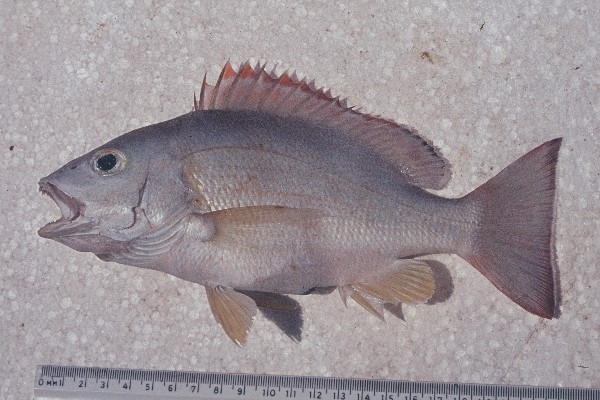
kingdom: Animalia
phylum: Chordata
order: Perciformes
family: Lutjanidae
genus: Lutjanus
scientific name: Lutjanus fulvus
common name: Blacktail snapper
